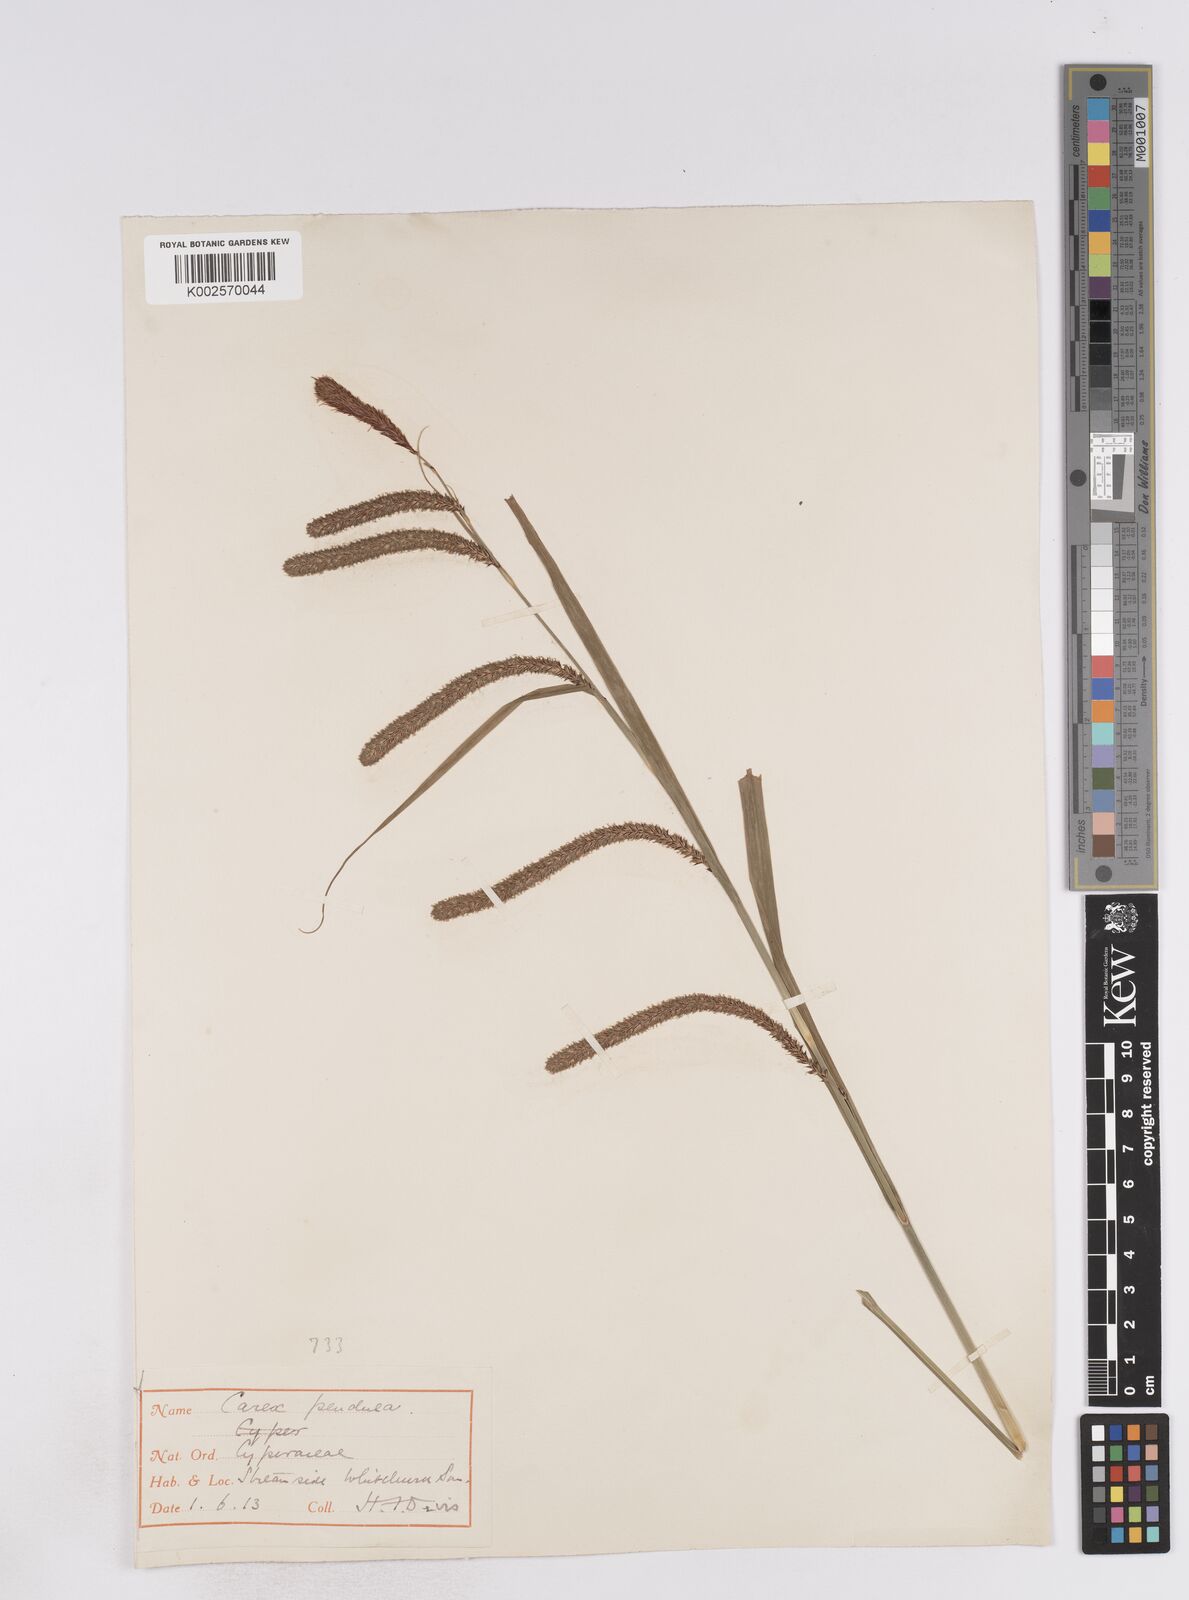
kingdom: Plantae
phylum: Tracheophyta
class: Liliopsida
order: Poales
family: Cyperaceae
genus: Carex
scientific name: Carex pendula
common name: Pendulous sedge
